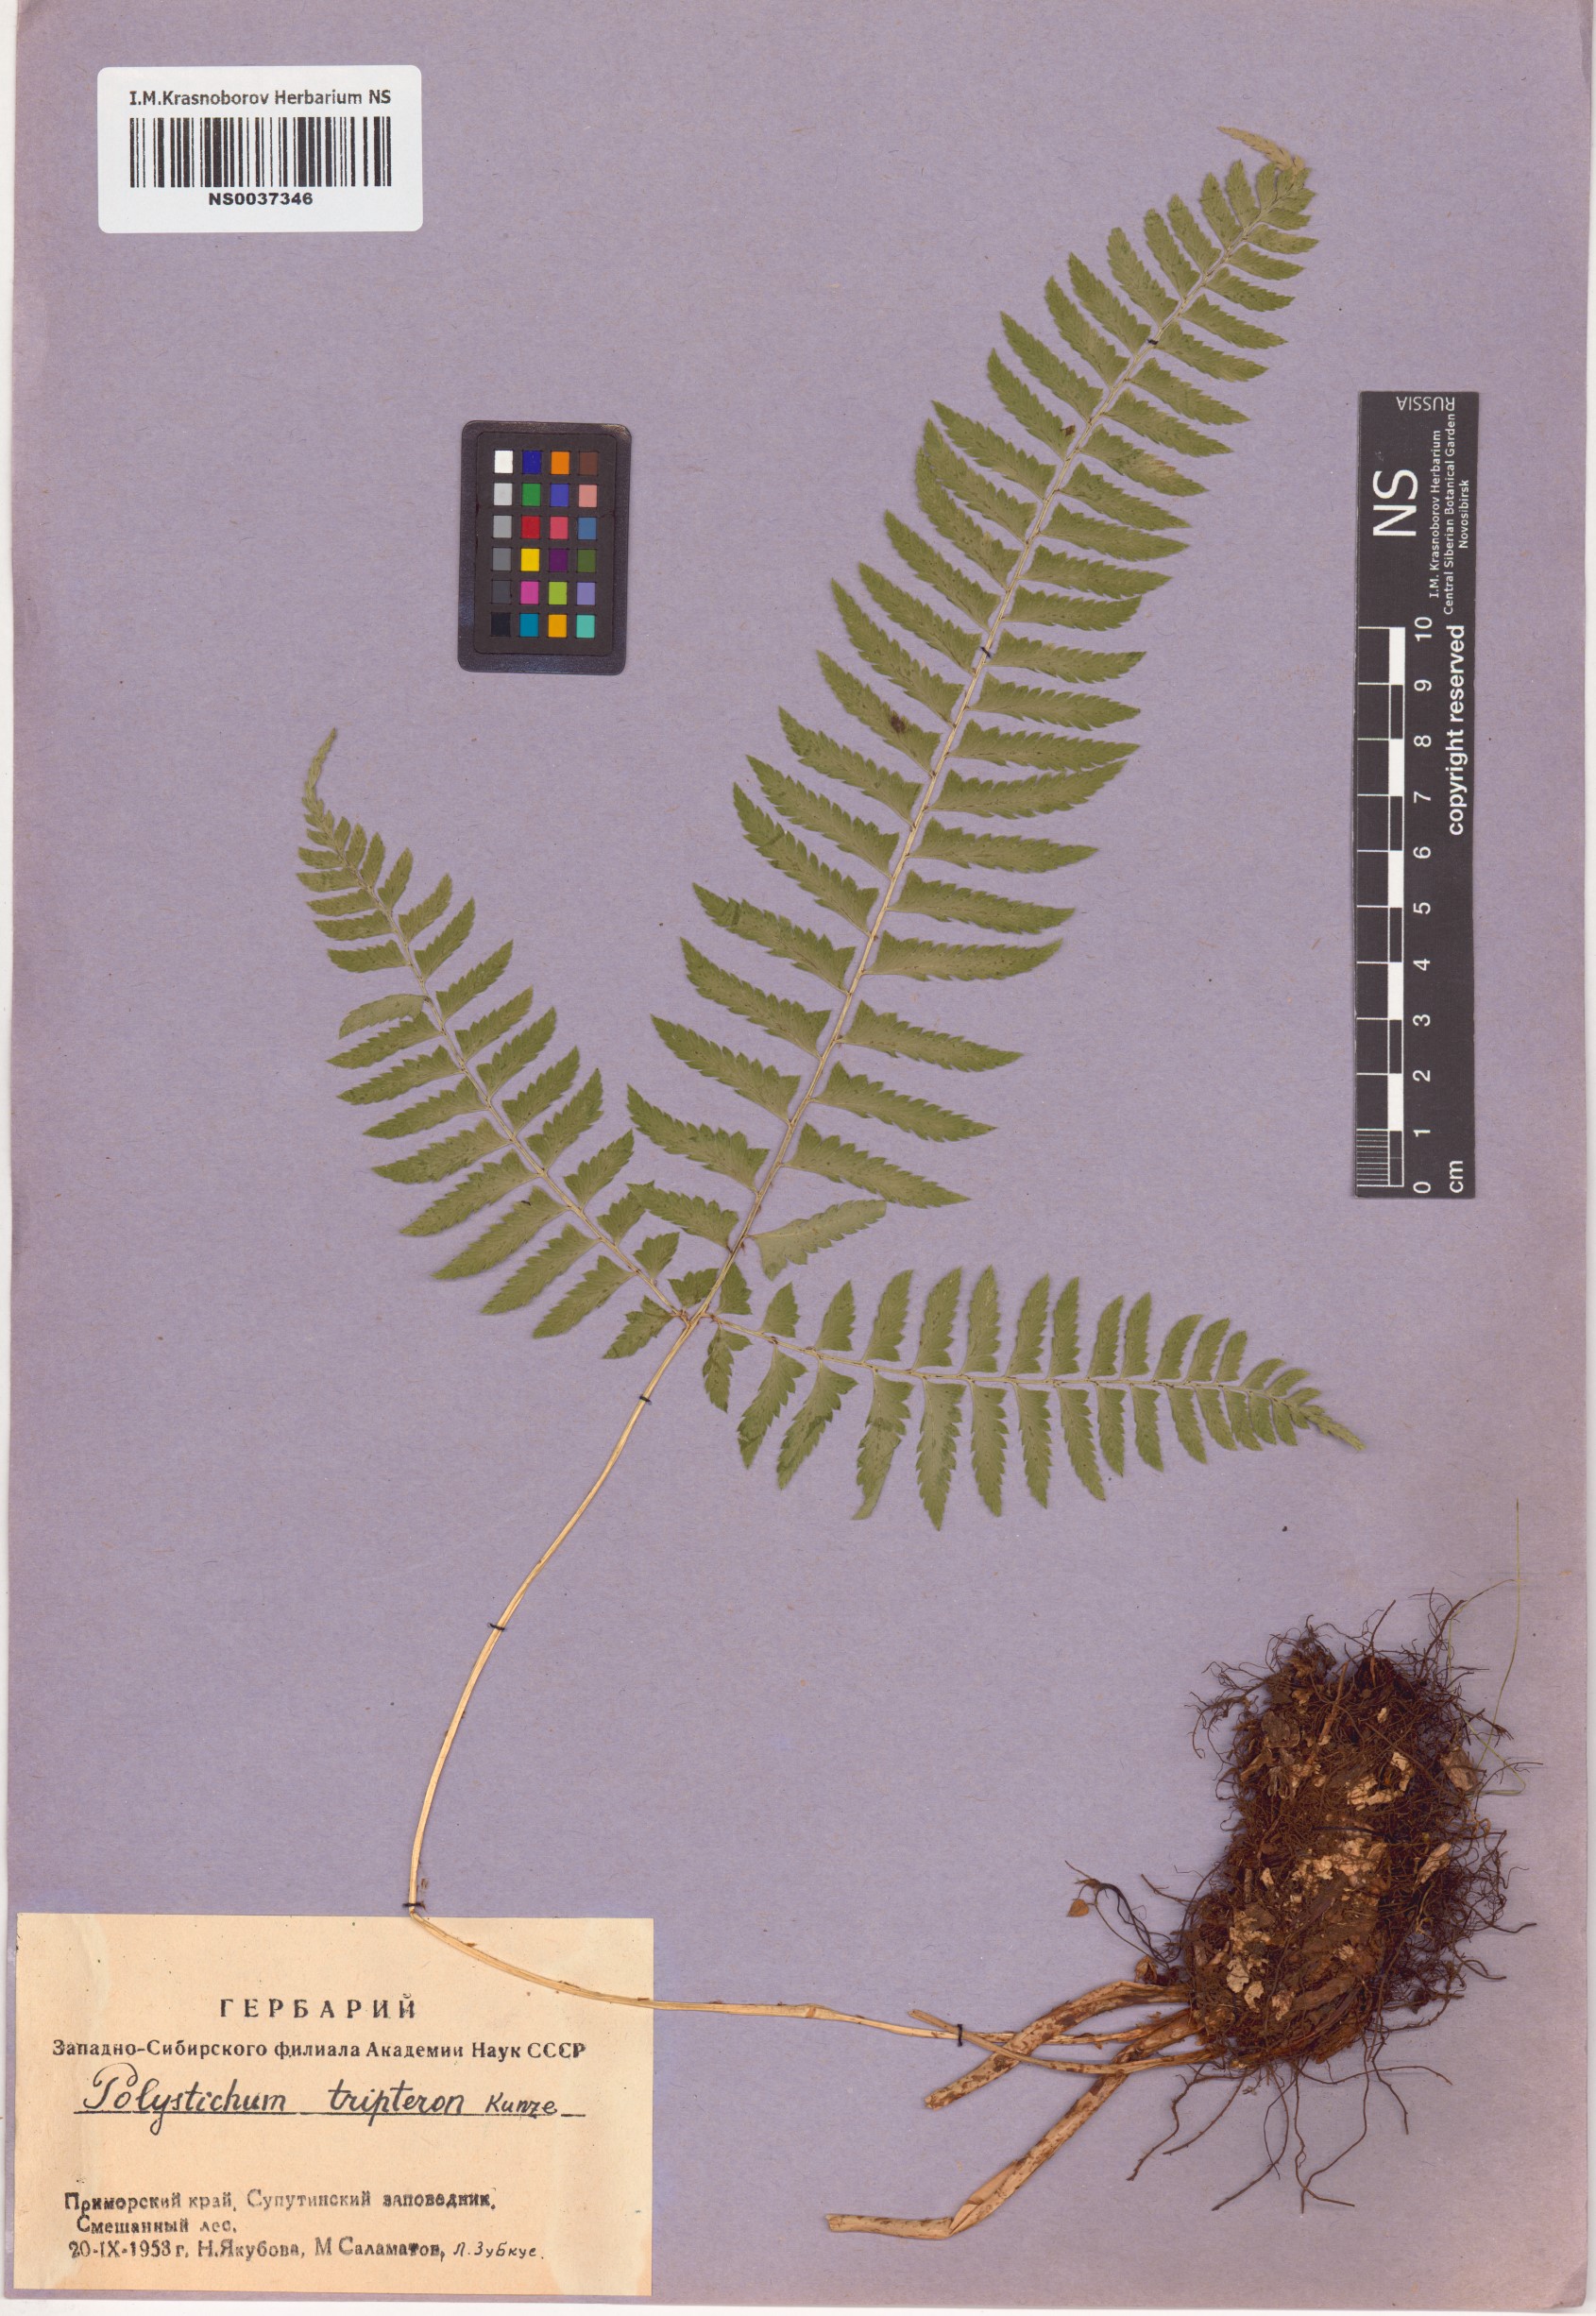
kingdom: Plantae
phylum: Tracheophyta
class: Polypodiopsida
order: Polypodiales
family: Dryopteridaceae
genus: Polystichum
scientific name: Polystichum tripteron
